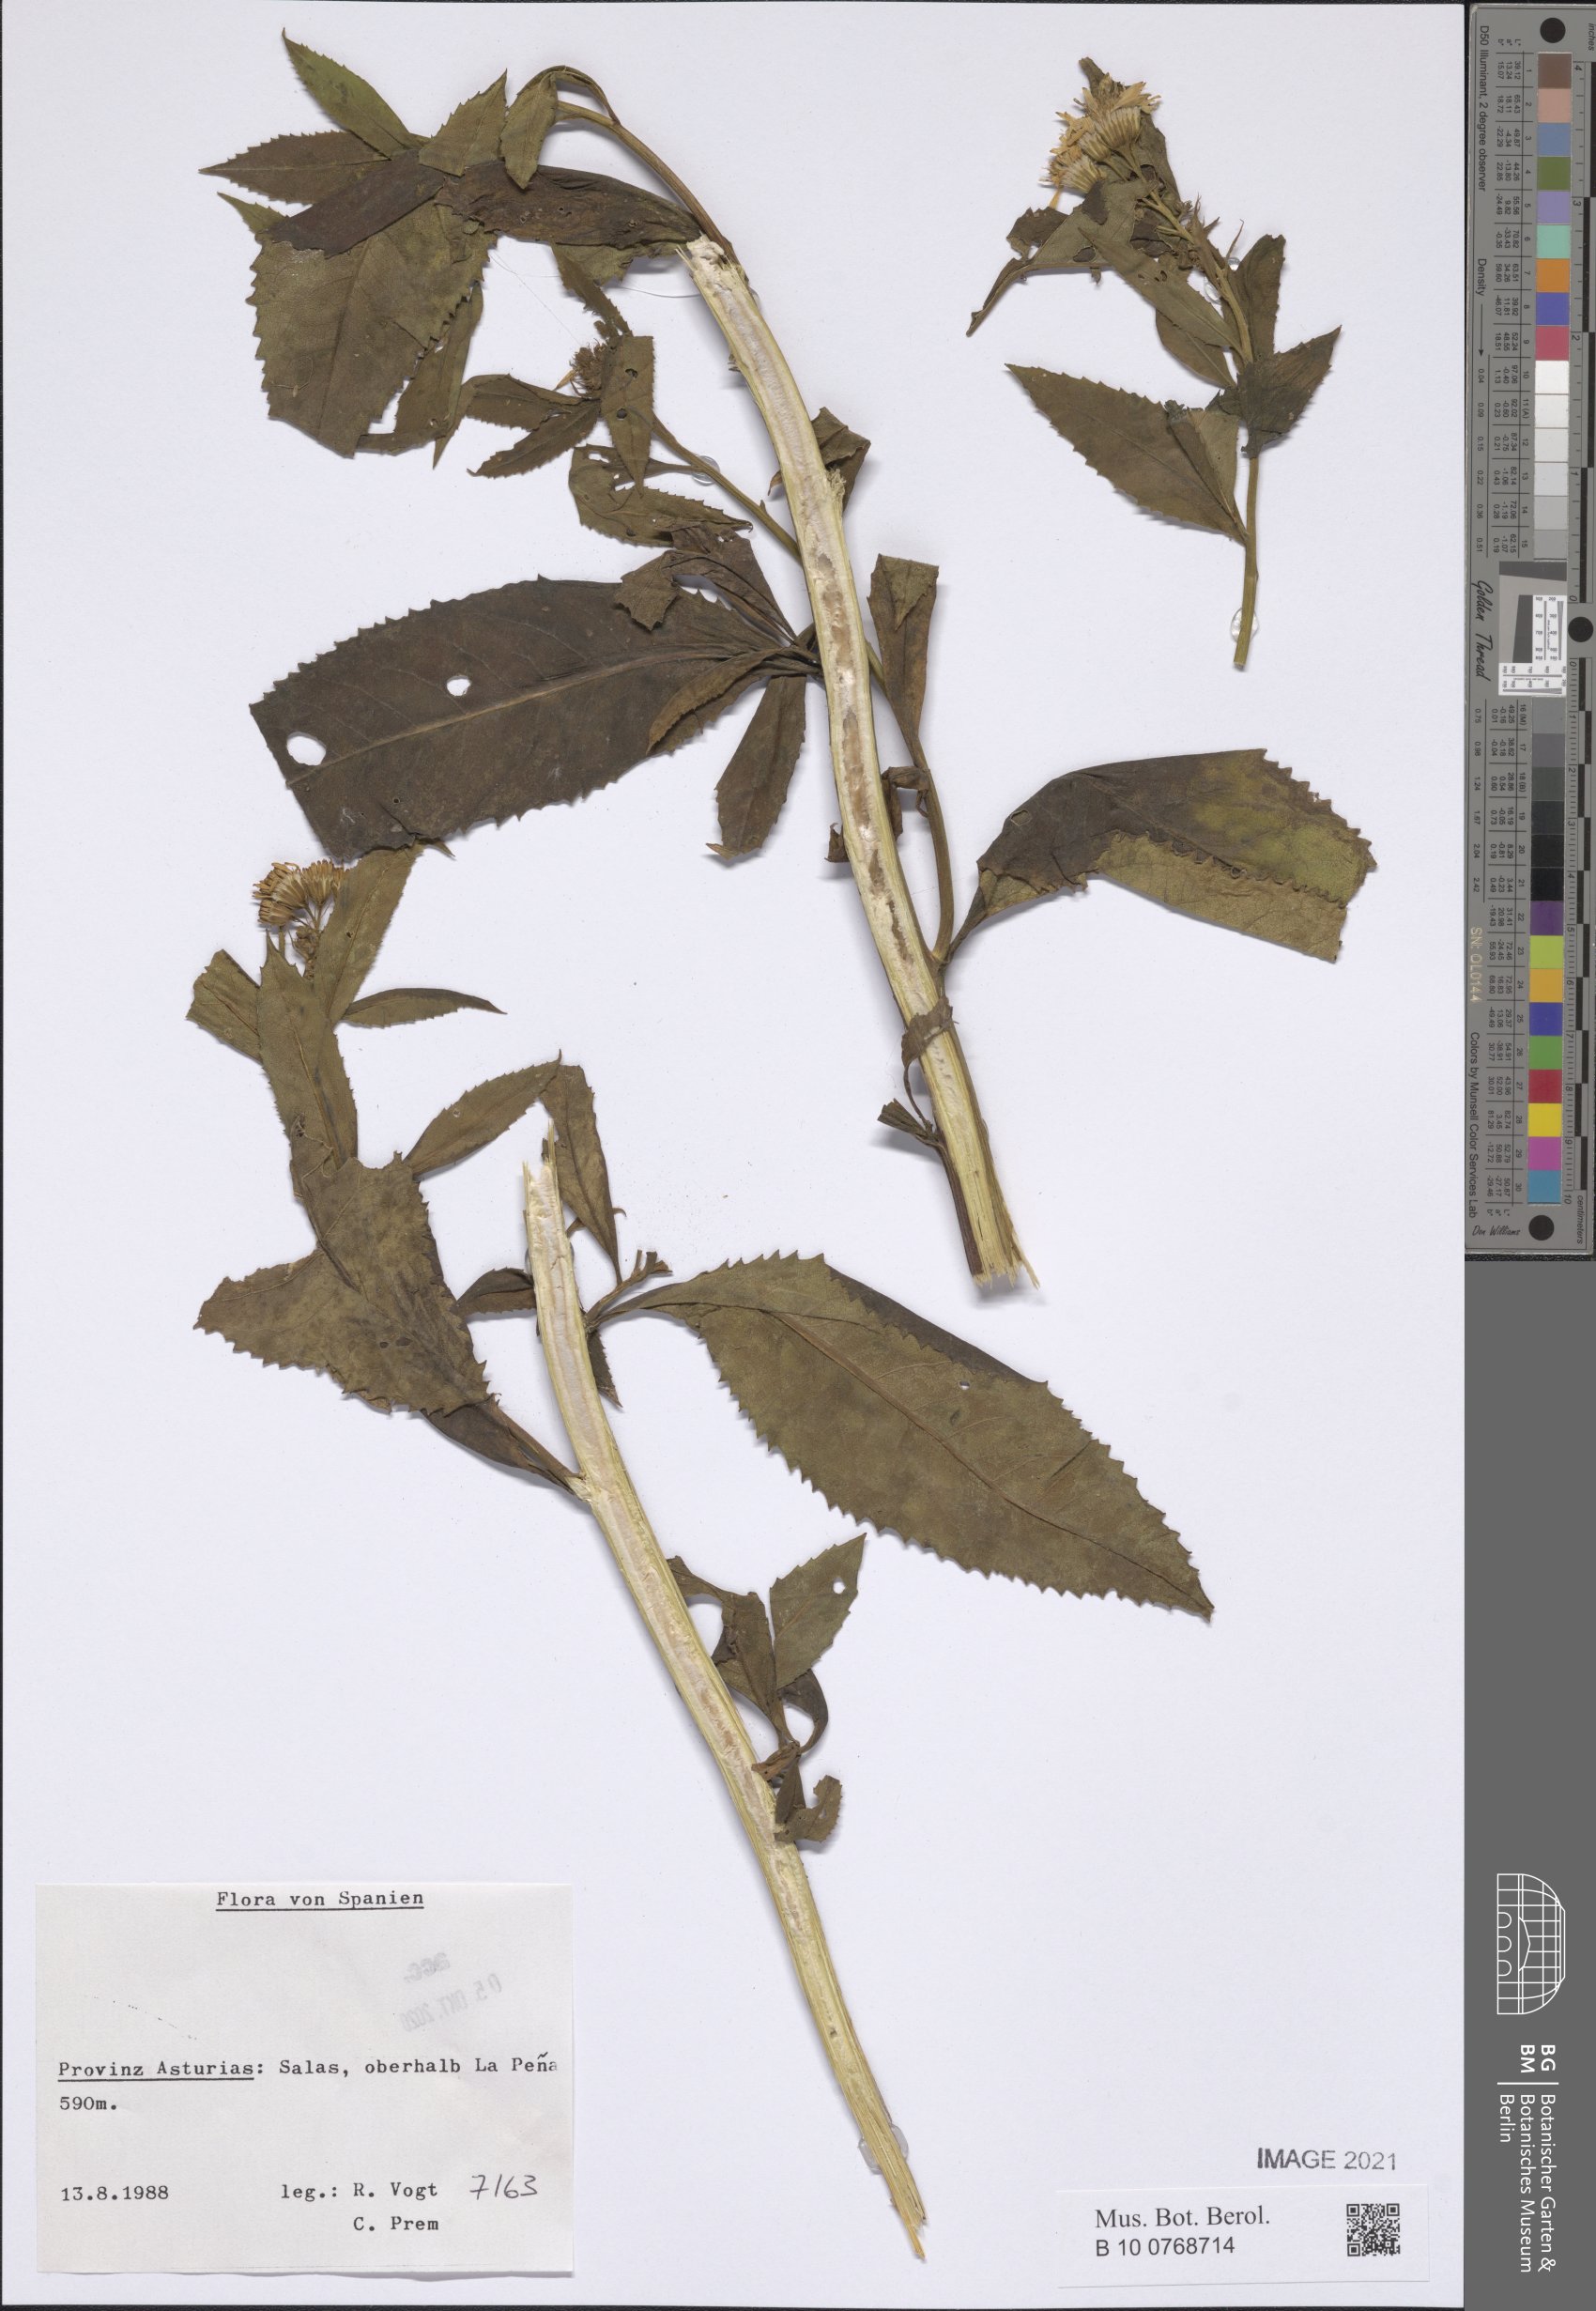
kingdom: Plantae
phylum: Tracheophyta
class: Magnoliopsida
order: Asterales
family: Asteraceae
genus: Senecio
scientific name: Senecio
